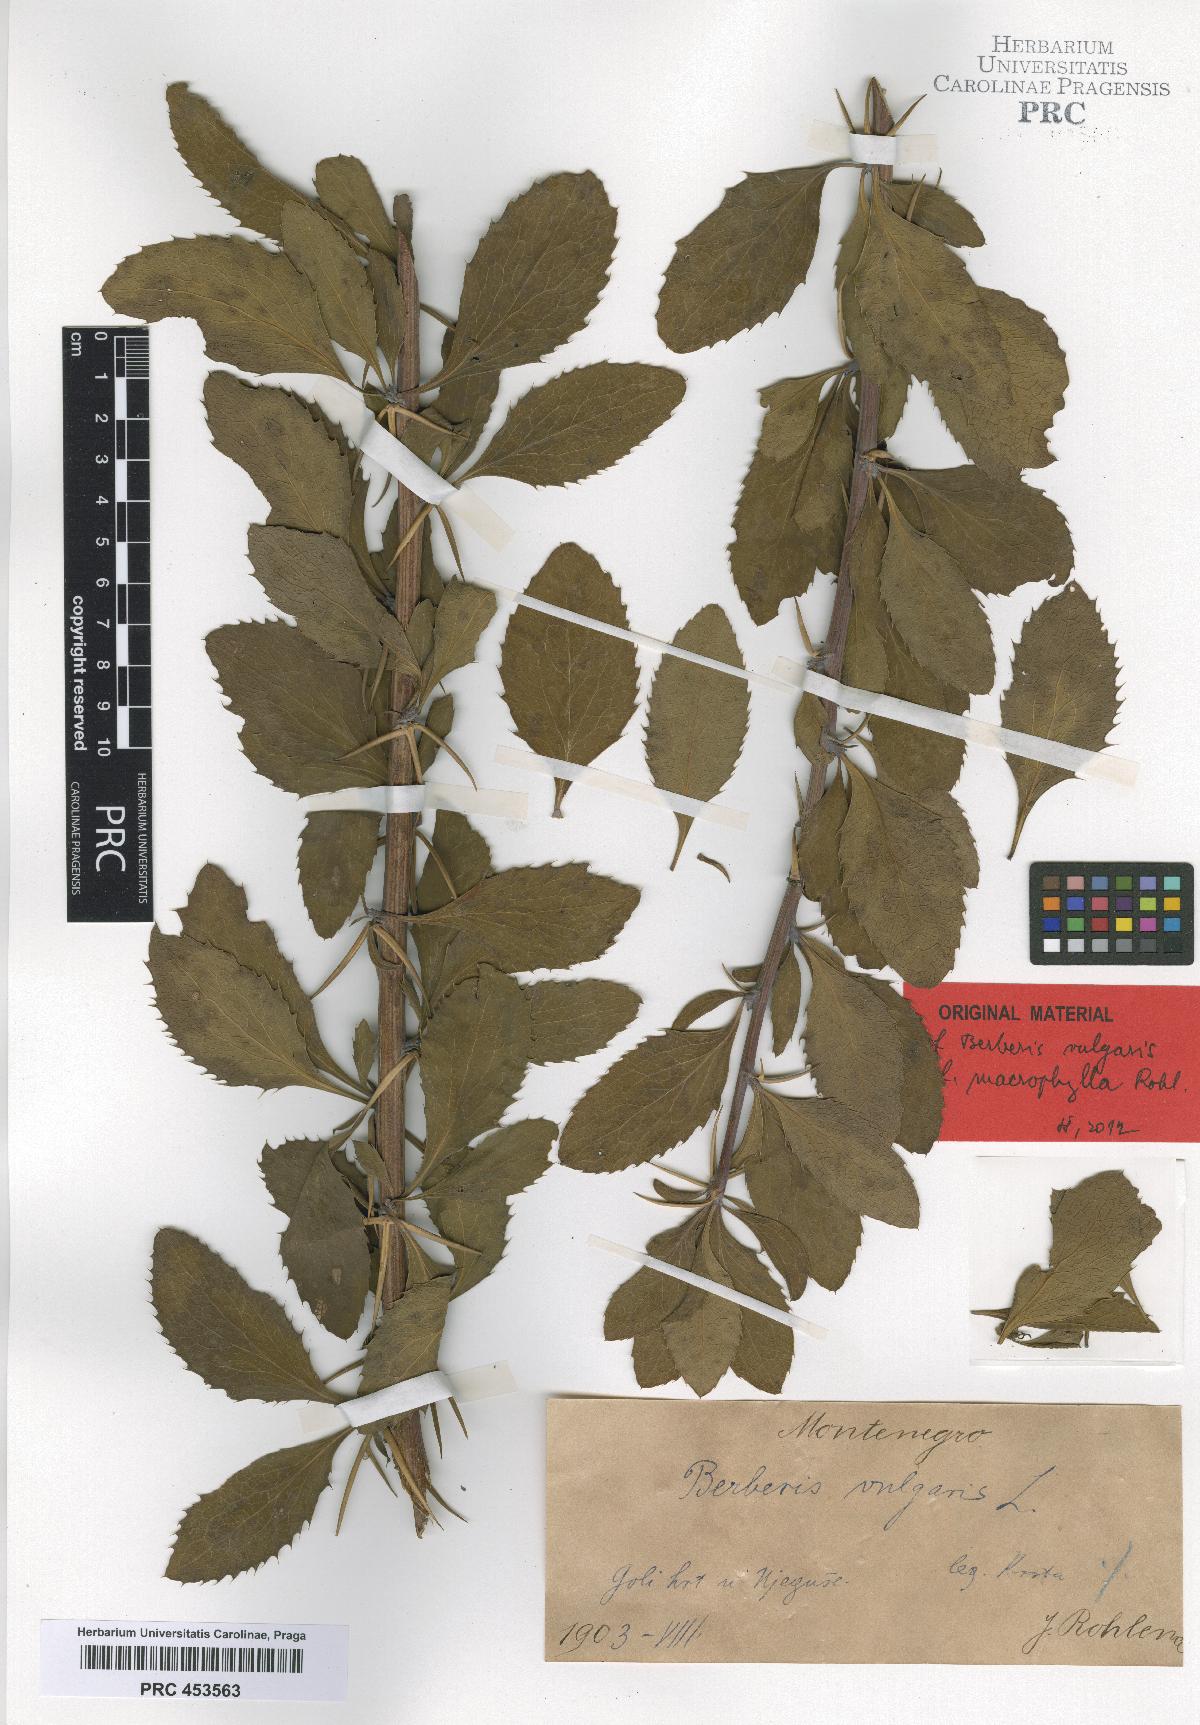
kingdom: Plantae
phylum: Tracheophyta
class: Magnoliopsida
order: Ranunculales
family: Berberidaceae
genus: Berberis
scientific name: Berberis vulgaris
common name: Barberry
